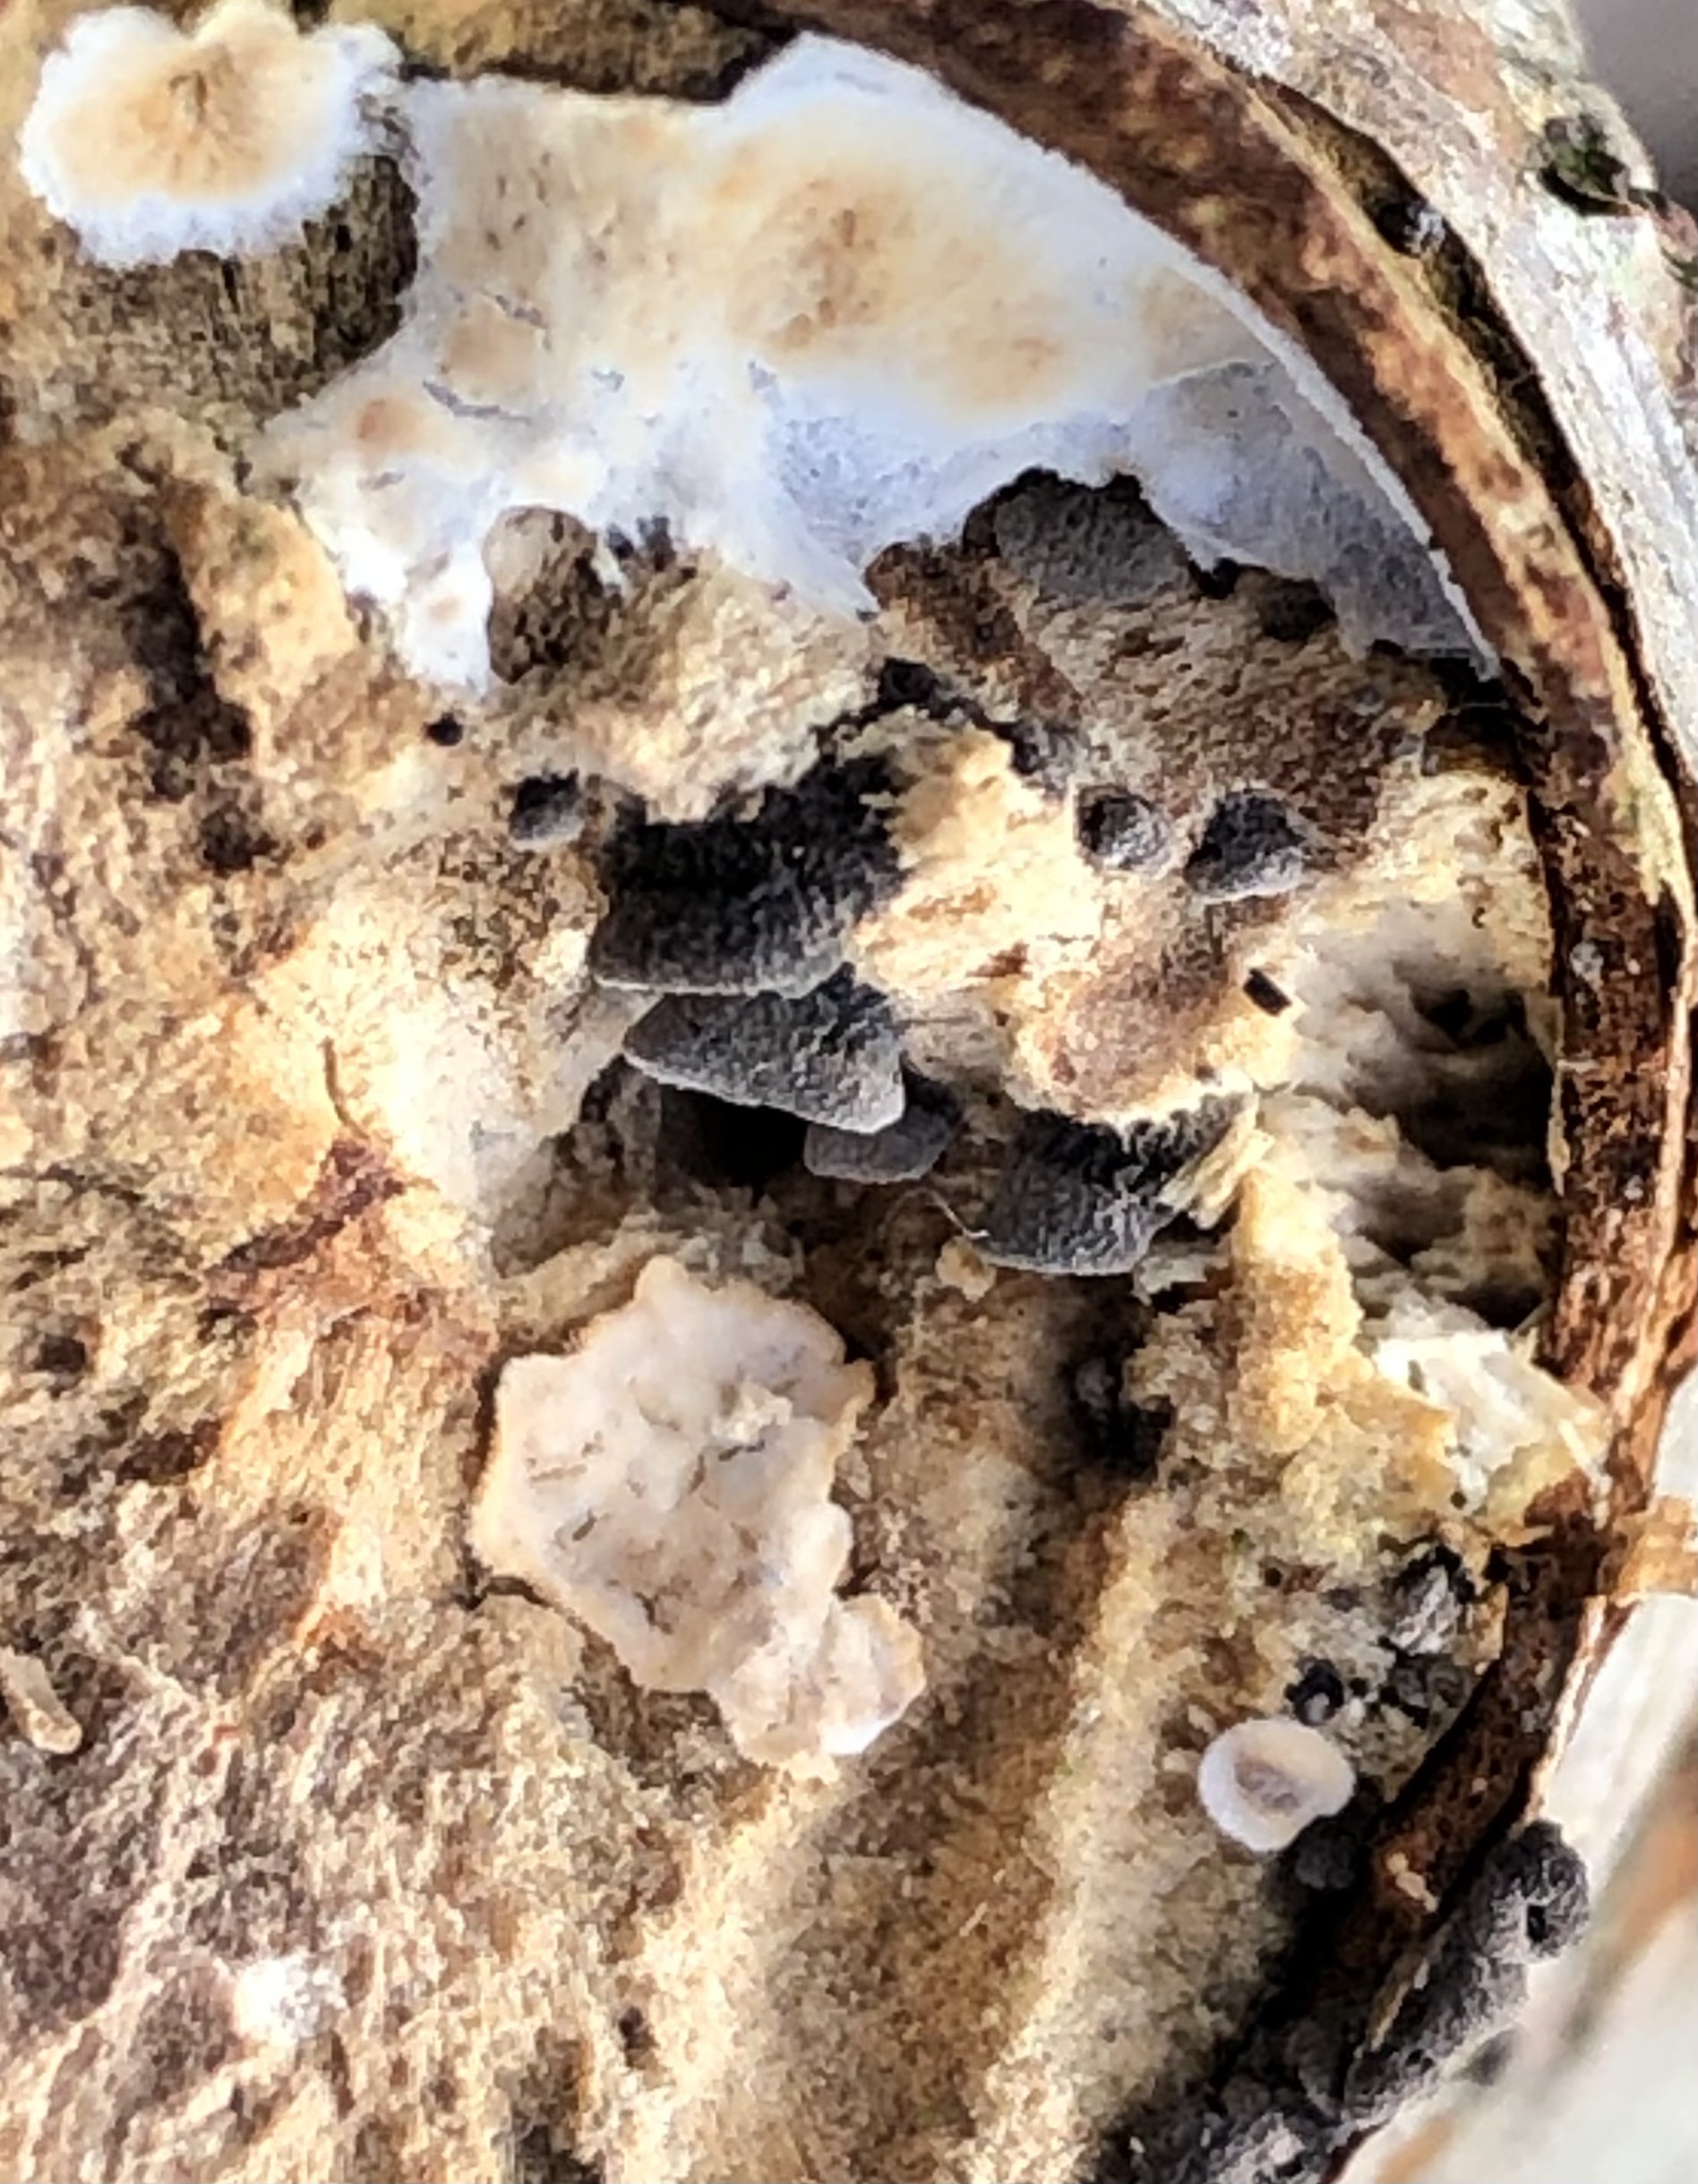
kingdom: Fungi
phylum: Basidiomycota
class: Agaricomycetes
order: Agaricales
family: Pleurotaceae
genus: Resupinatus
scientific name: Resupinatus trichotis
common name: mørkfiltet barkhat
